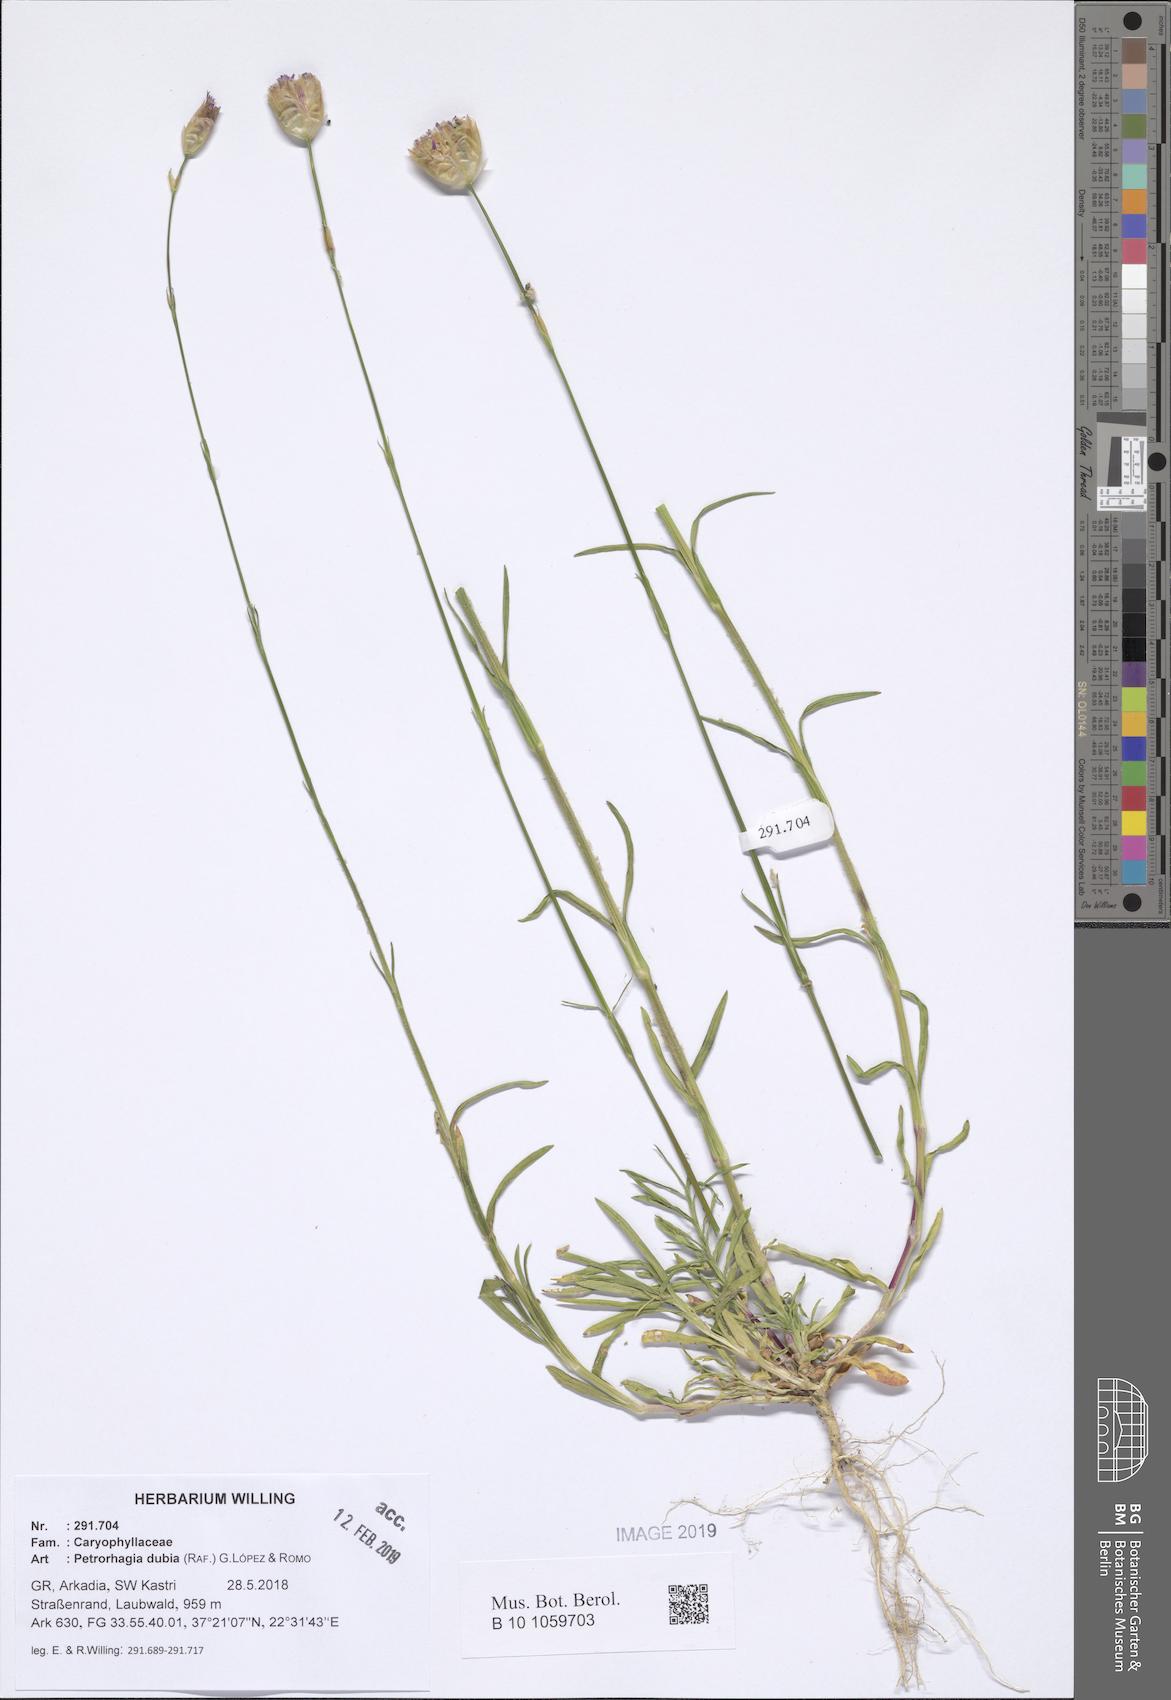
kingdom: Plantae
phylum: Tracheophyta
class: Magnoliopsida
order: Caryophyllales
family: Caryophyllaceae
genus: Petrorhagia
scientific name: Petrorhagia dubia
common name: Hairypink
